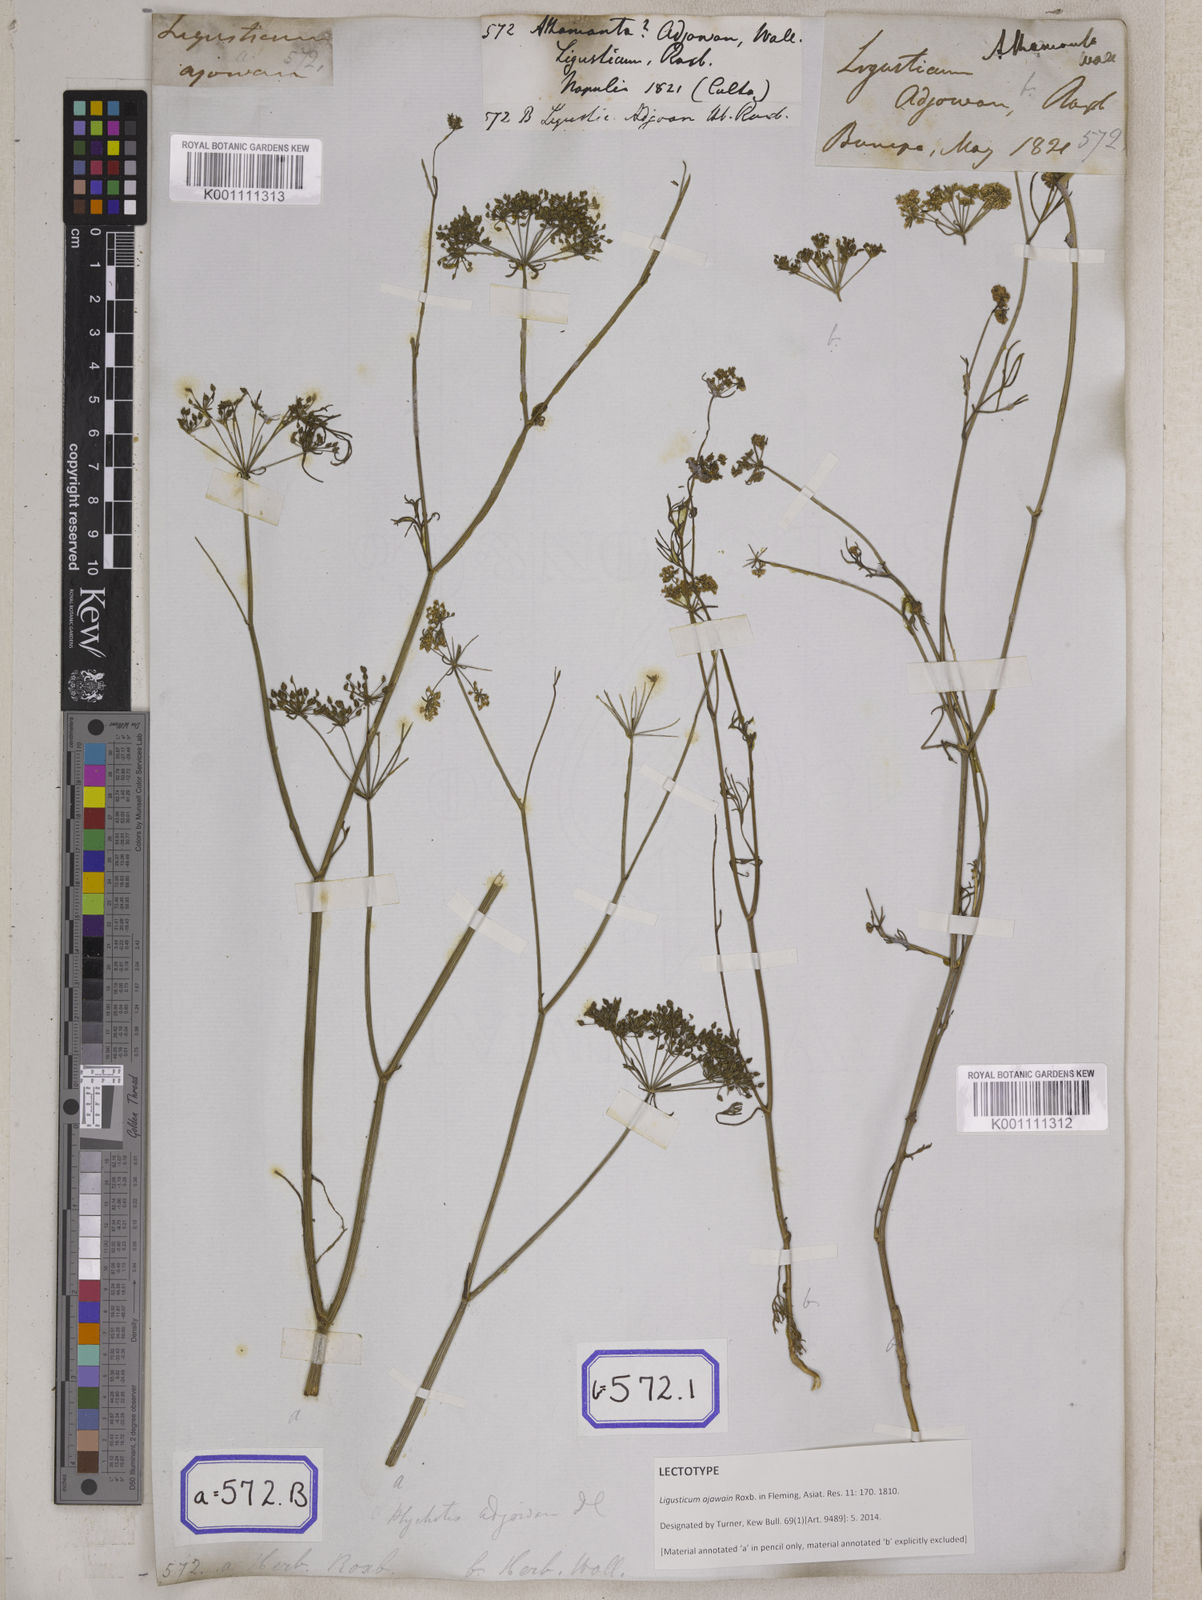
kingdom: Plantae
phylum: Tracheophyta
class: Magnoliopsida
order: Apiales
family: Apiaceae
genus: Trachyspermum
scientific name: Trachyspermum ammi
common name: Ajowan
